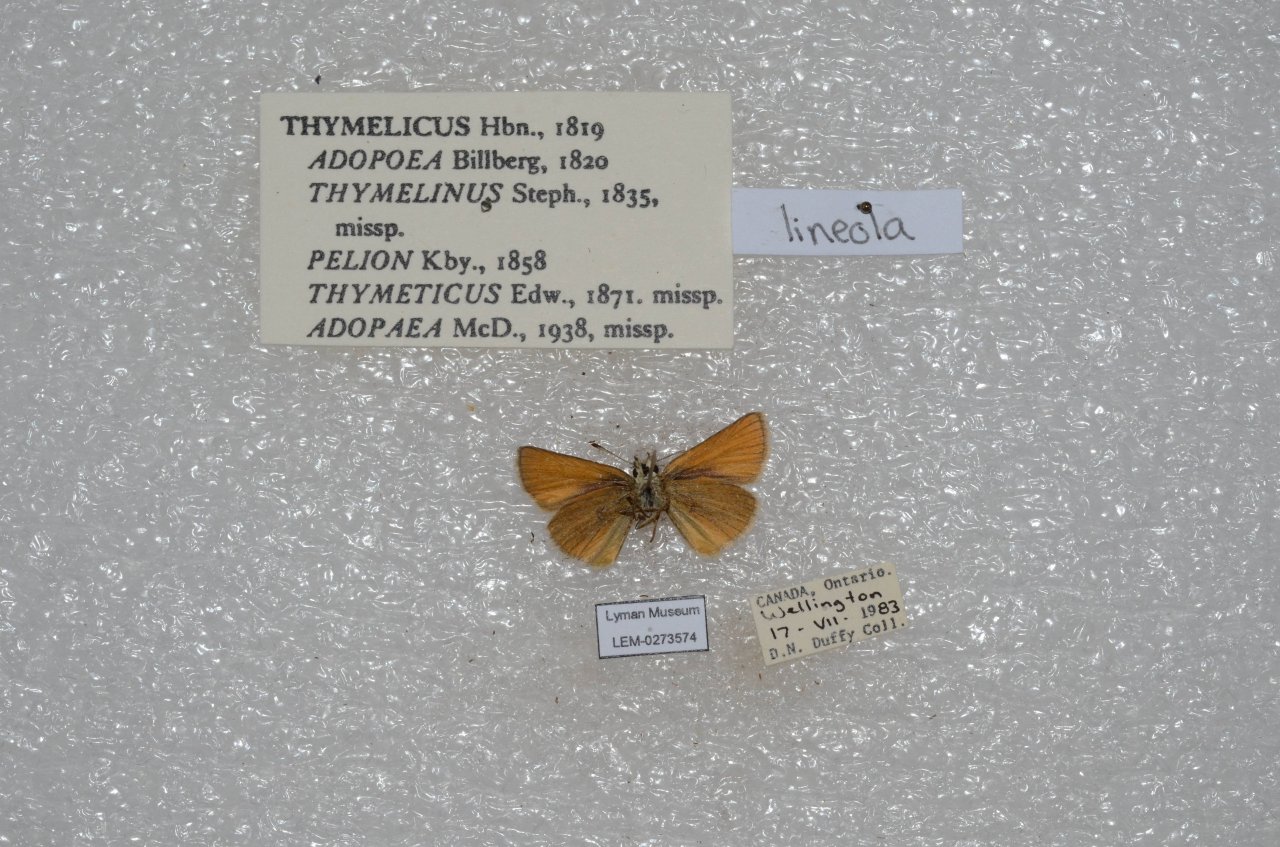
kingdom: Animalia
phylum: Arthropoda
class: Insecta
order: Lepidoptera
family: Hesperiidae
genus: Thymelicus
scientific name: Thymelicus lineola
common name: European Skipper
